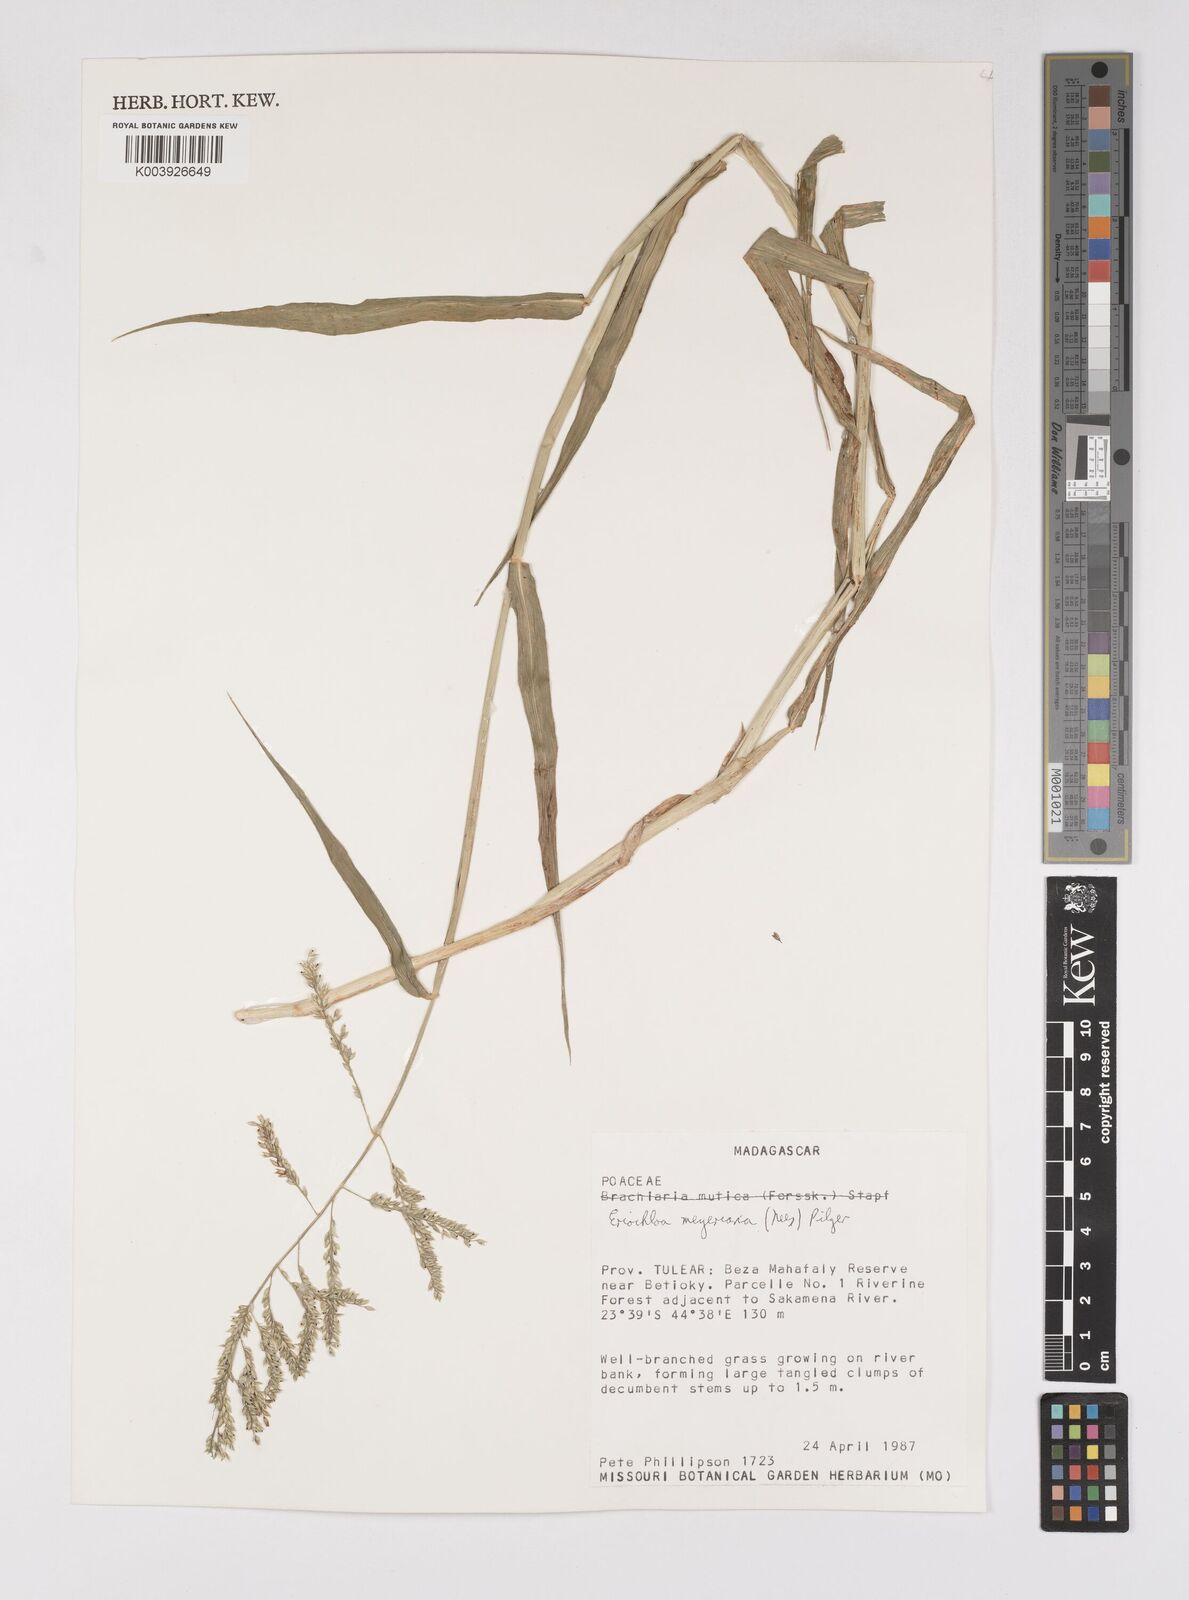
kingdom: Plantae
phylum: Tracheophyta
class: Liliopsida
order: Poales
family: Poaceae
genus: Eriochloa
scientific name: Eriochloa meyeriana
